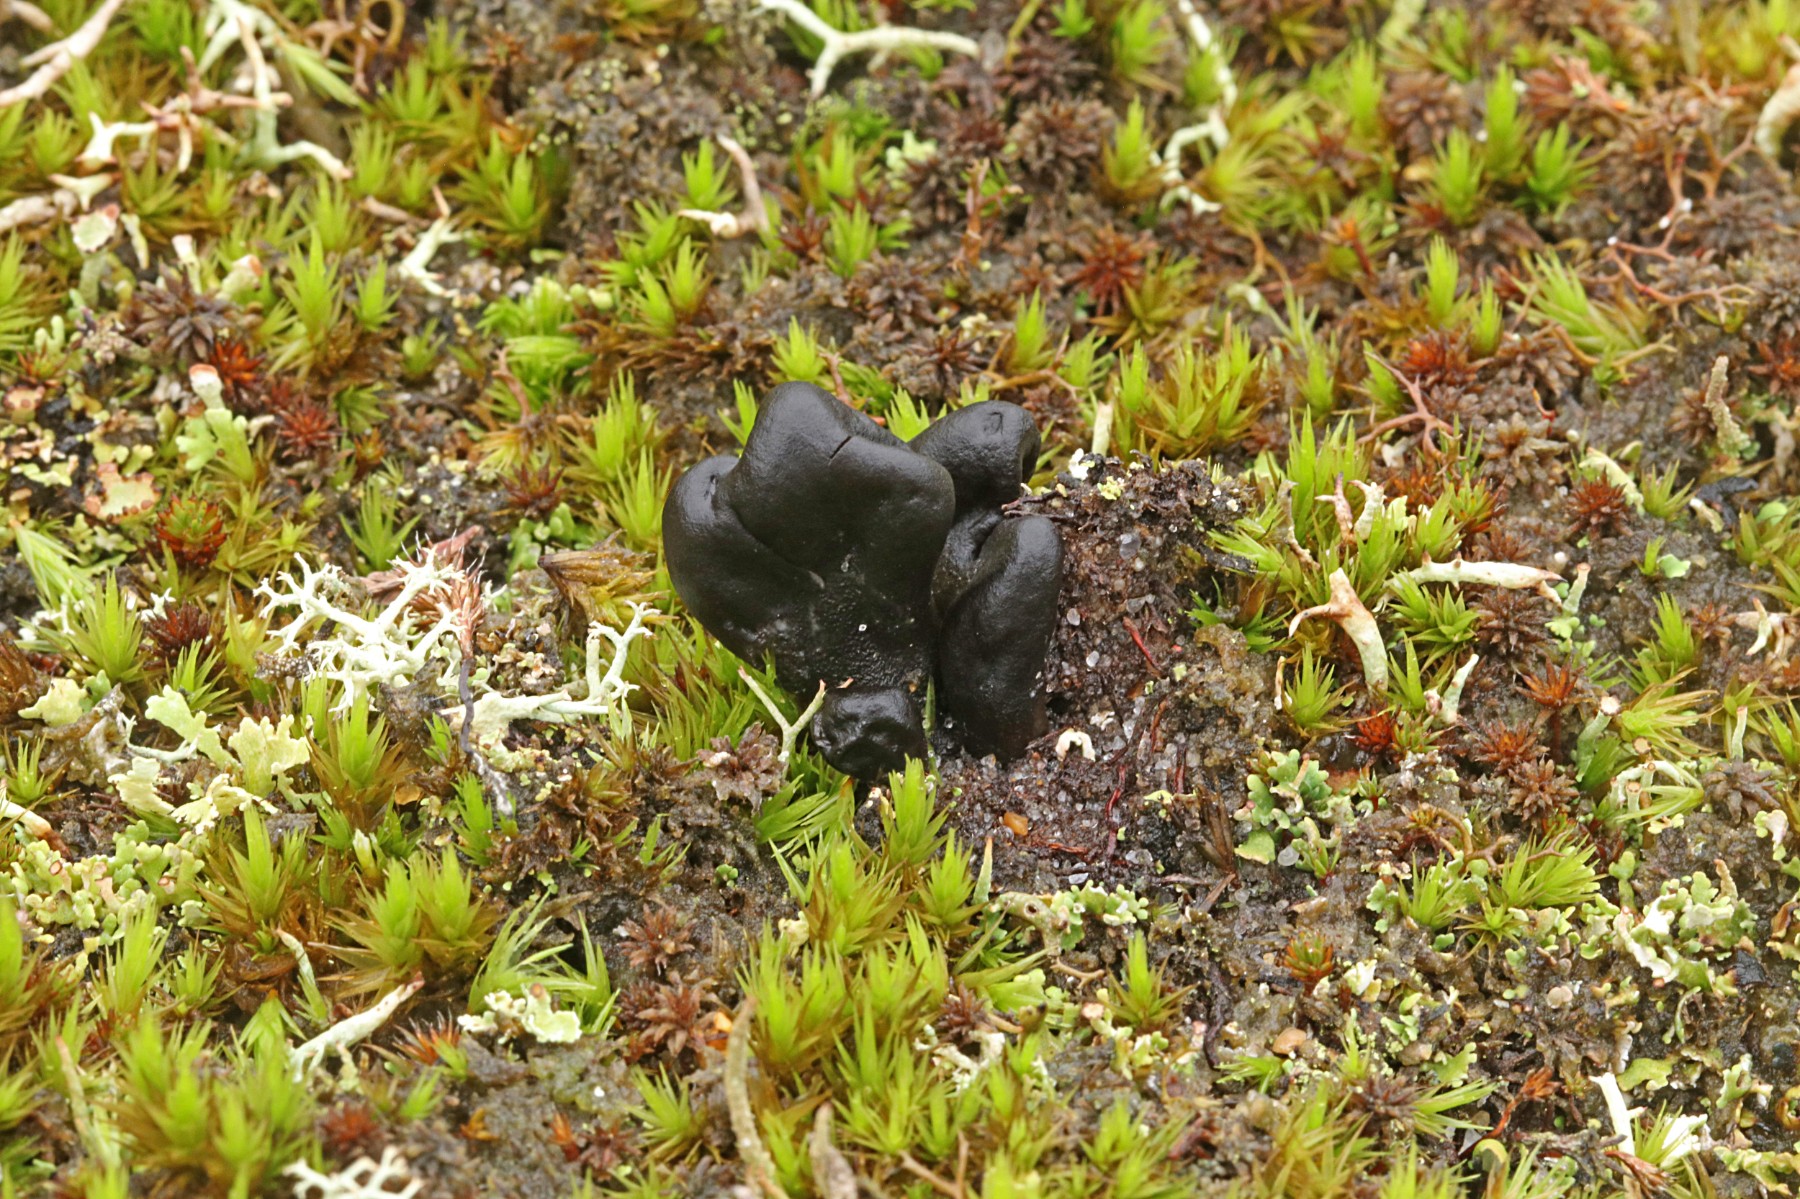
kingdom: Fungi
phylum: Ascomycota
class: Geoglossomycetes
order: Geoglossales
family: Geoglossaceae
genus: Sabuloglossum
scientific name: Sabuloglossum arenarium
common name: klit-jordtunge
